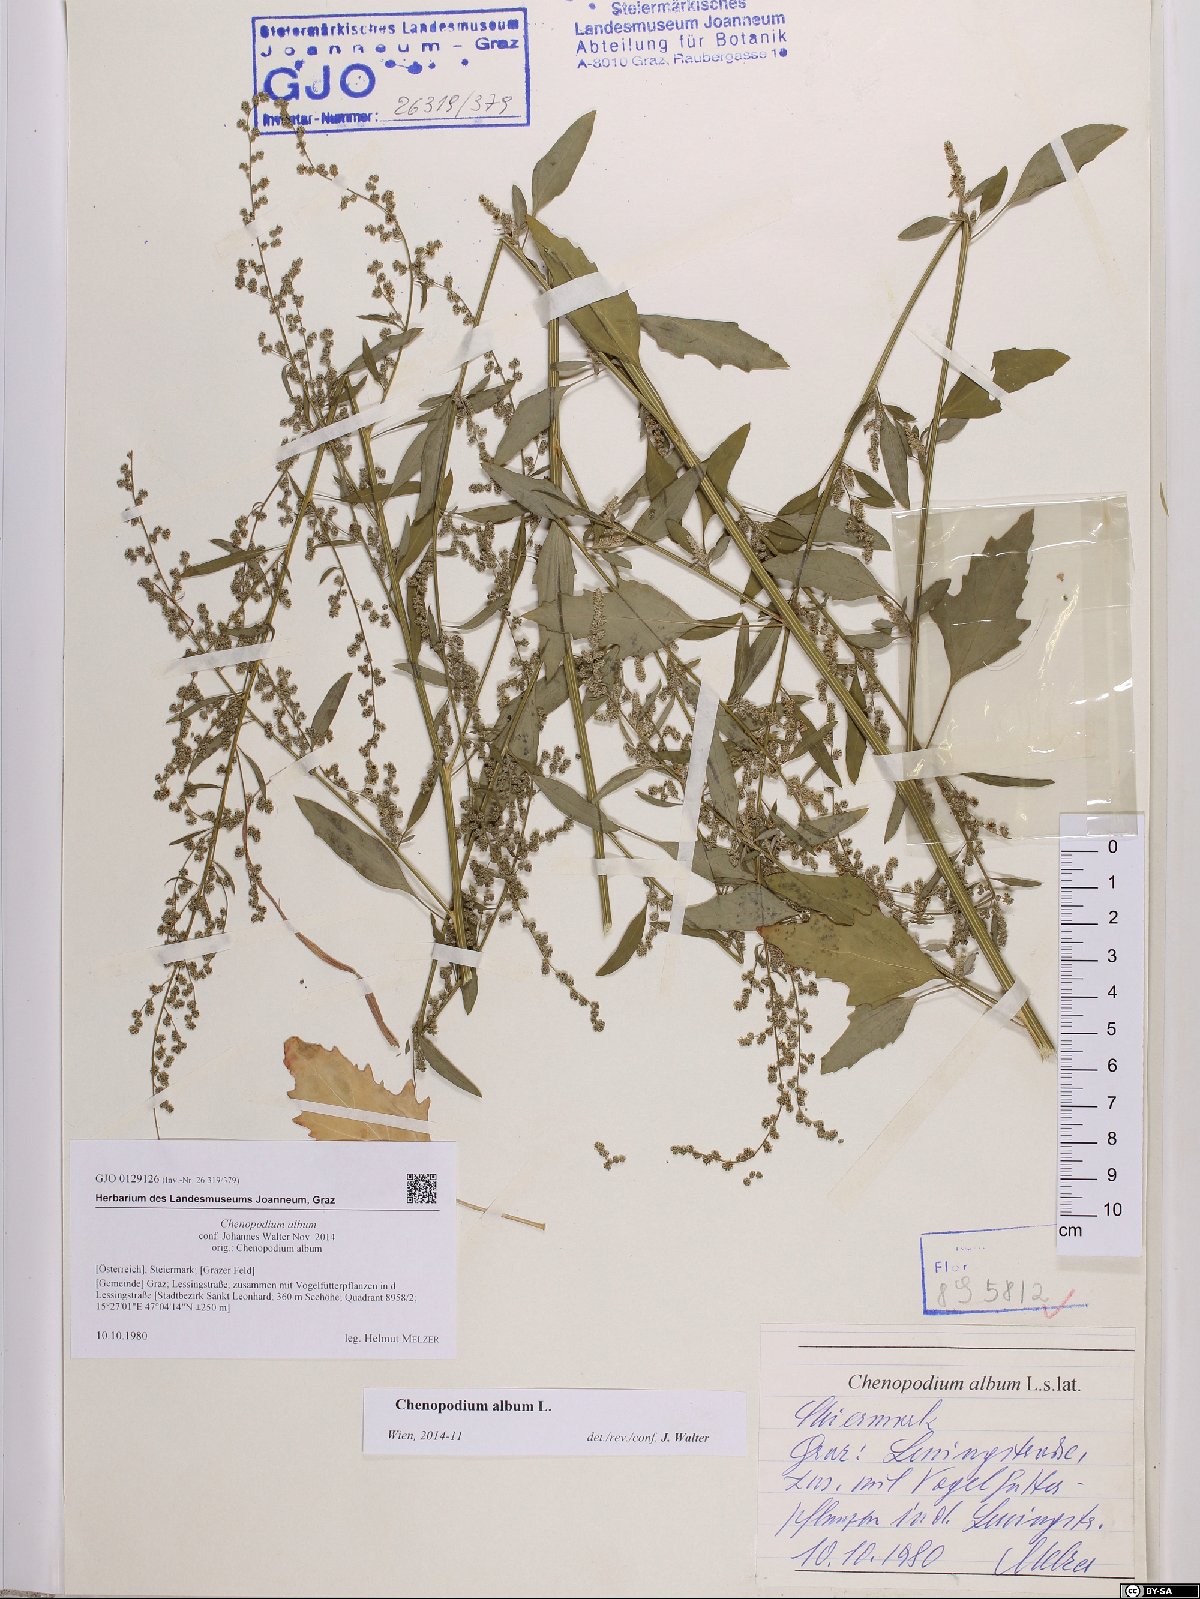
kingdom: Plantae
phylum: Tracheophyta
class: Magnoliopsida
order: Caryophyllales
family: Amaranthaceae
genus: Chenopodium
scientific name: Chenopodium album
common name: Fat-hen
